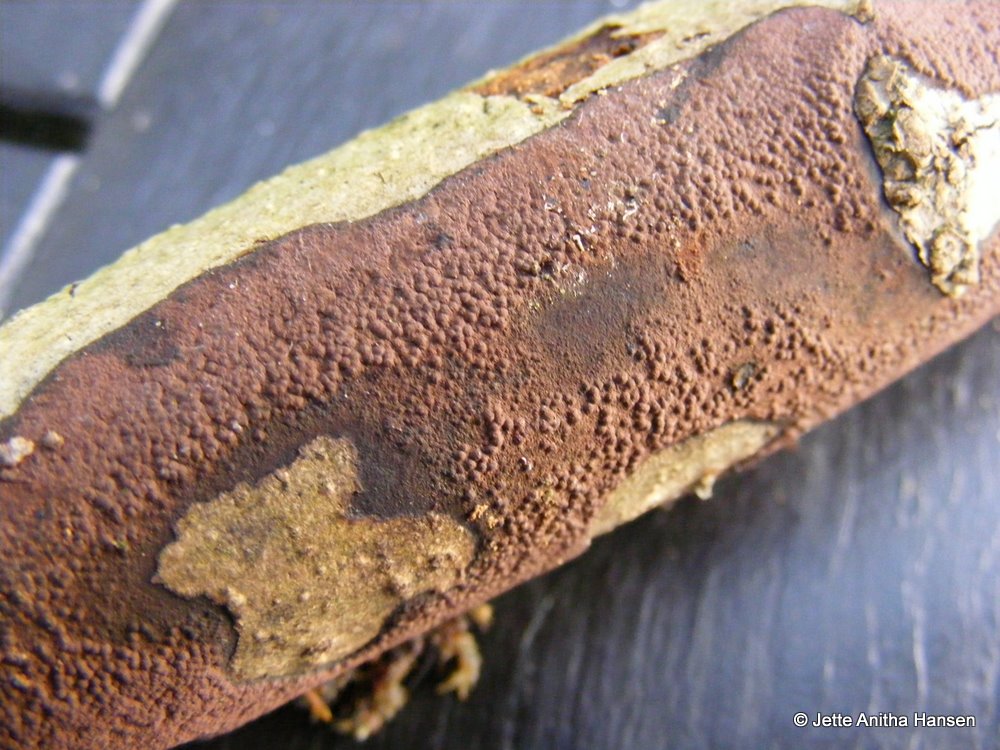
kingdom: Fungi
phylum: Ascomycota
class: Sordariomycetes
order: Xylariales
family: Hypoxylaceae
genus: Hypoxylon
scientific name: Hypoxylon petriniae
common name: nedsænket kulbær
